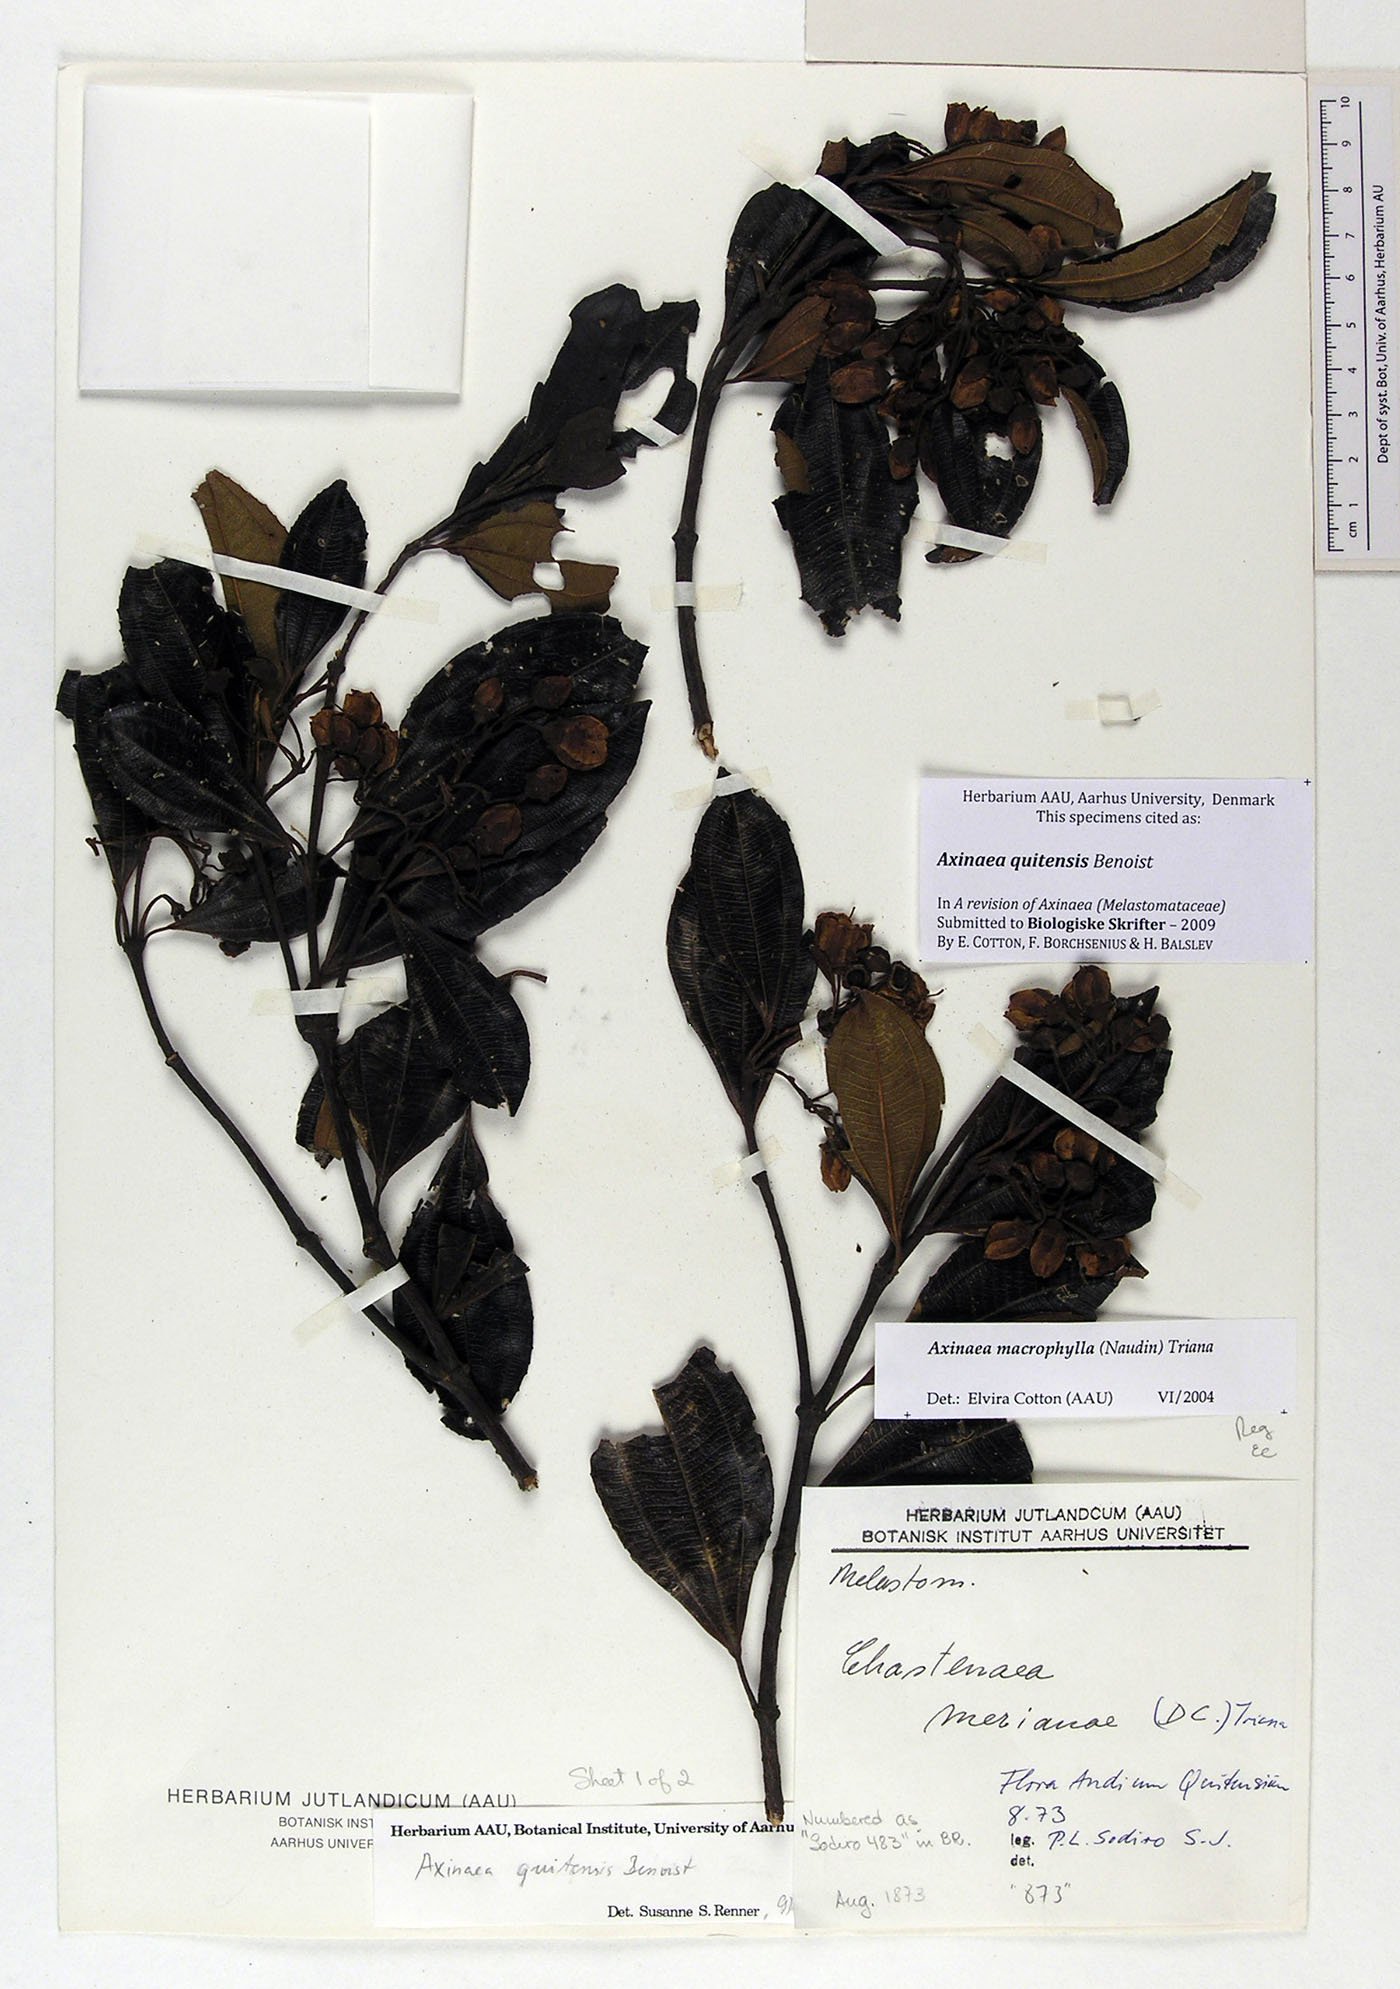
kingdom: Plantae
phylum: Tracheophyta
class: Magnoliopsida
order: Myrtales
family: Melastomataceae
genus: Axinaea
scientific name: Axinaea quitensis
